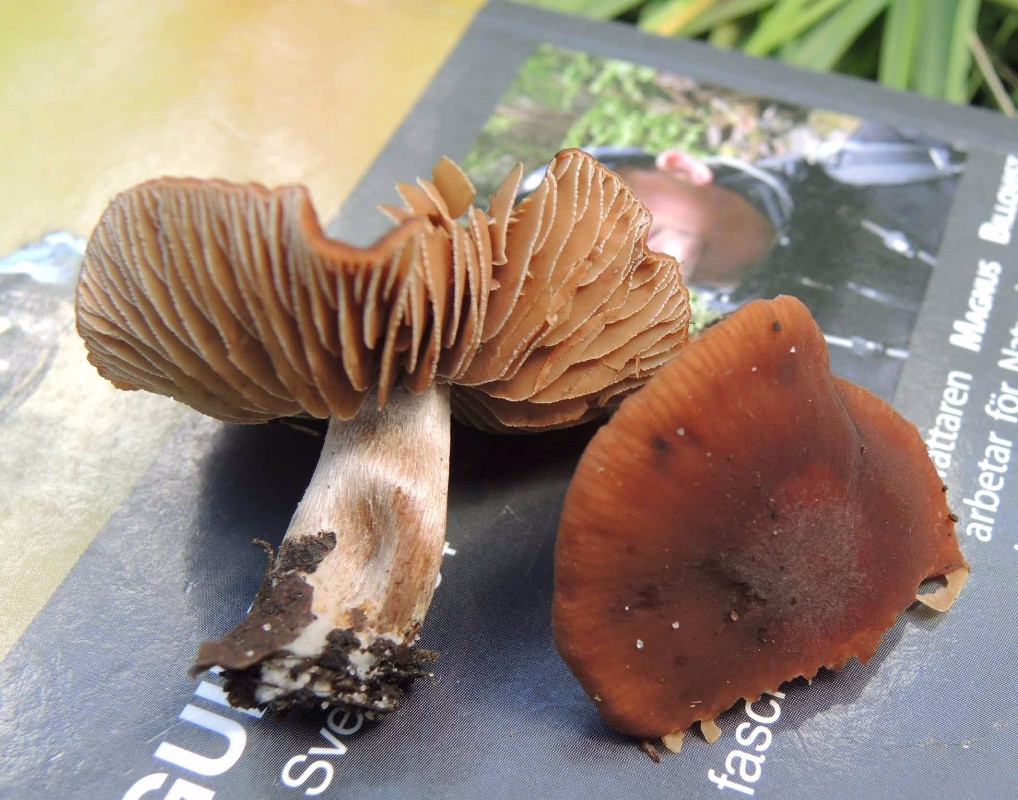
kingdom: Fungi
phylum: Basidiomycota
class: Agaricomycetes
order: Agaricales
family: Hymenogastraceae
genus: Naucoria
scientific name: Naucoria salicis
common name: pile-knaphat
